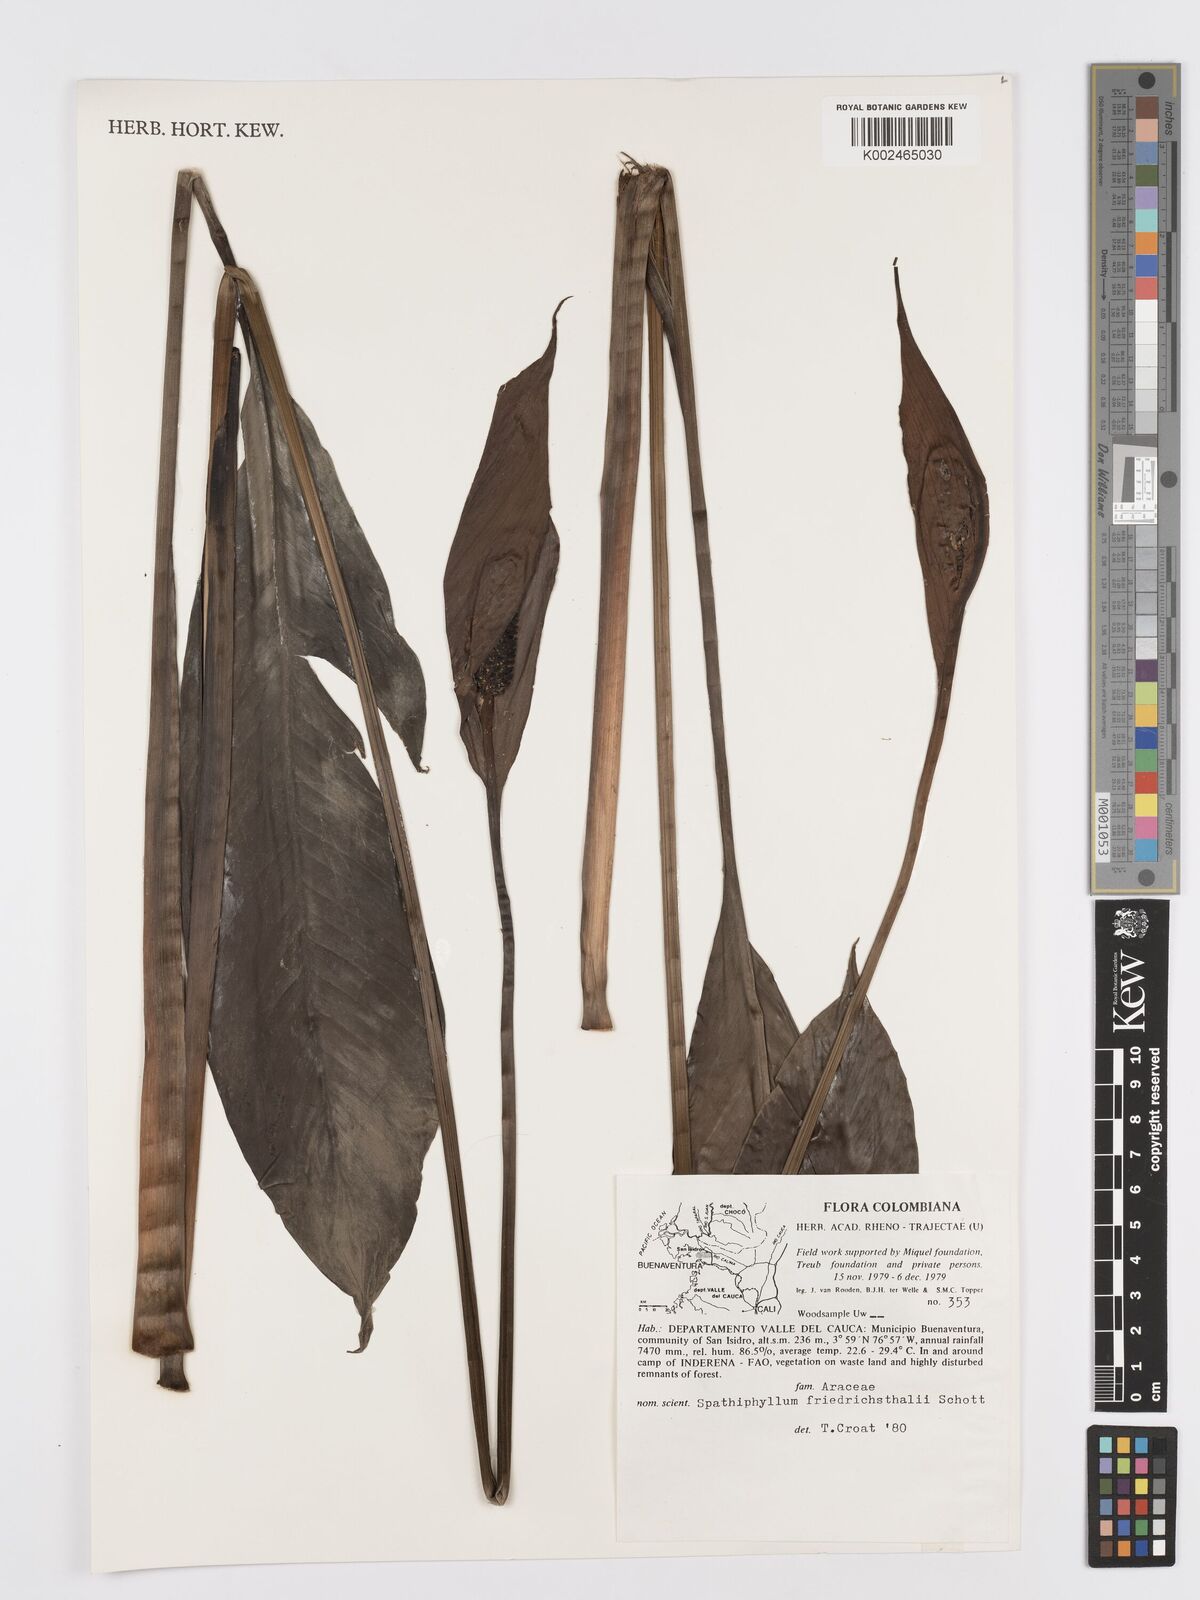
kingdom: Plantae
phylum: Tracheophyta
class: Liliopsida
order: Alismatales
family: Araceae
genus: Spathiphyllum
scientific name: Spathiphyllum friedrichsthalii
